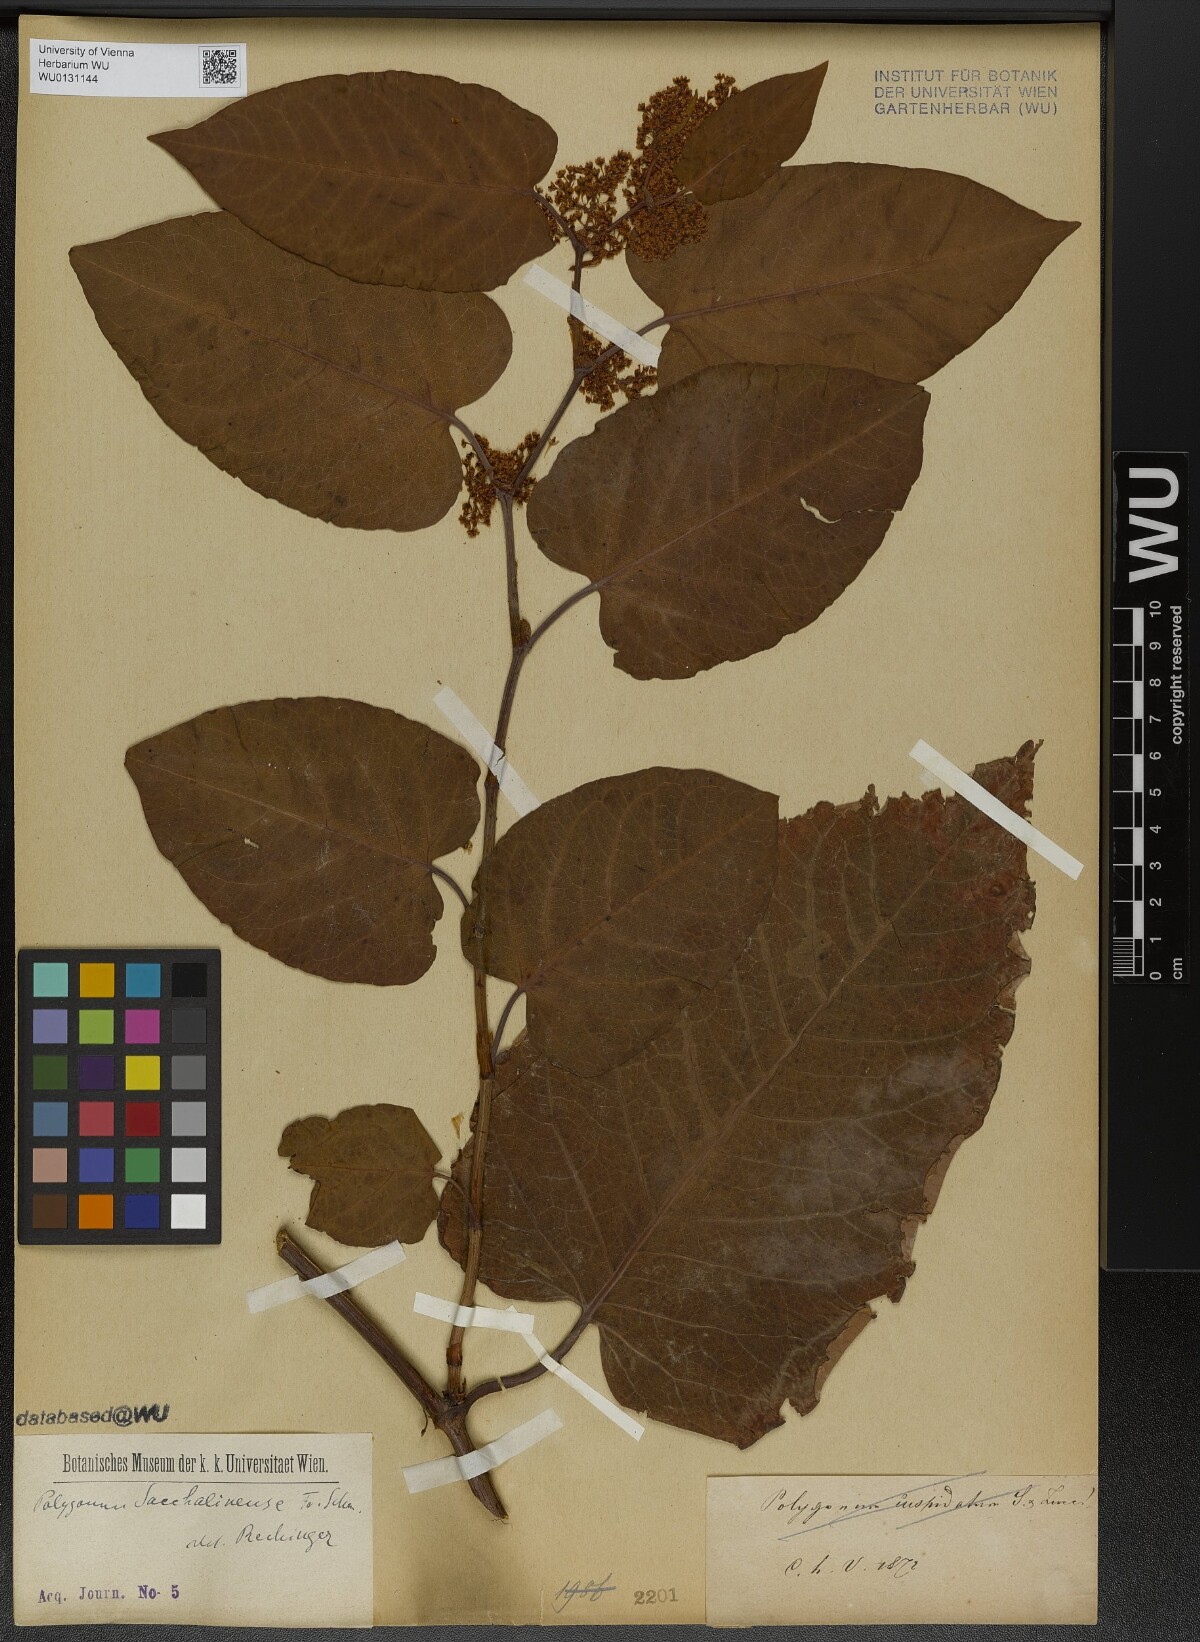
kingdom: Plantae
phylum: Tracheophyta
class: Magnoliopsida
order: Caryophyllales
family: Polygonaceae
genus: Reynoutria
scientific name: Reynoutria sachalinensis
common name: Giant knotweed
